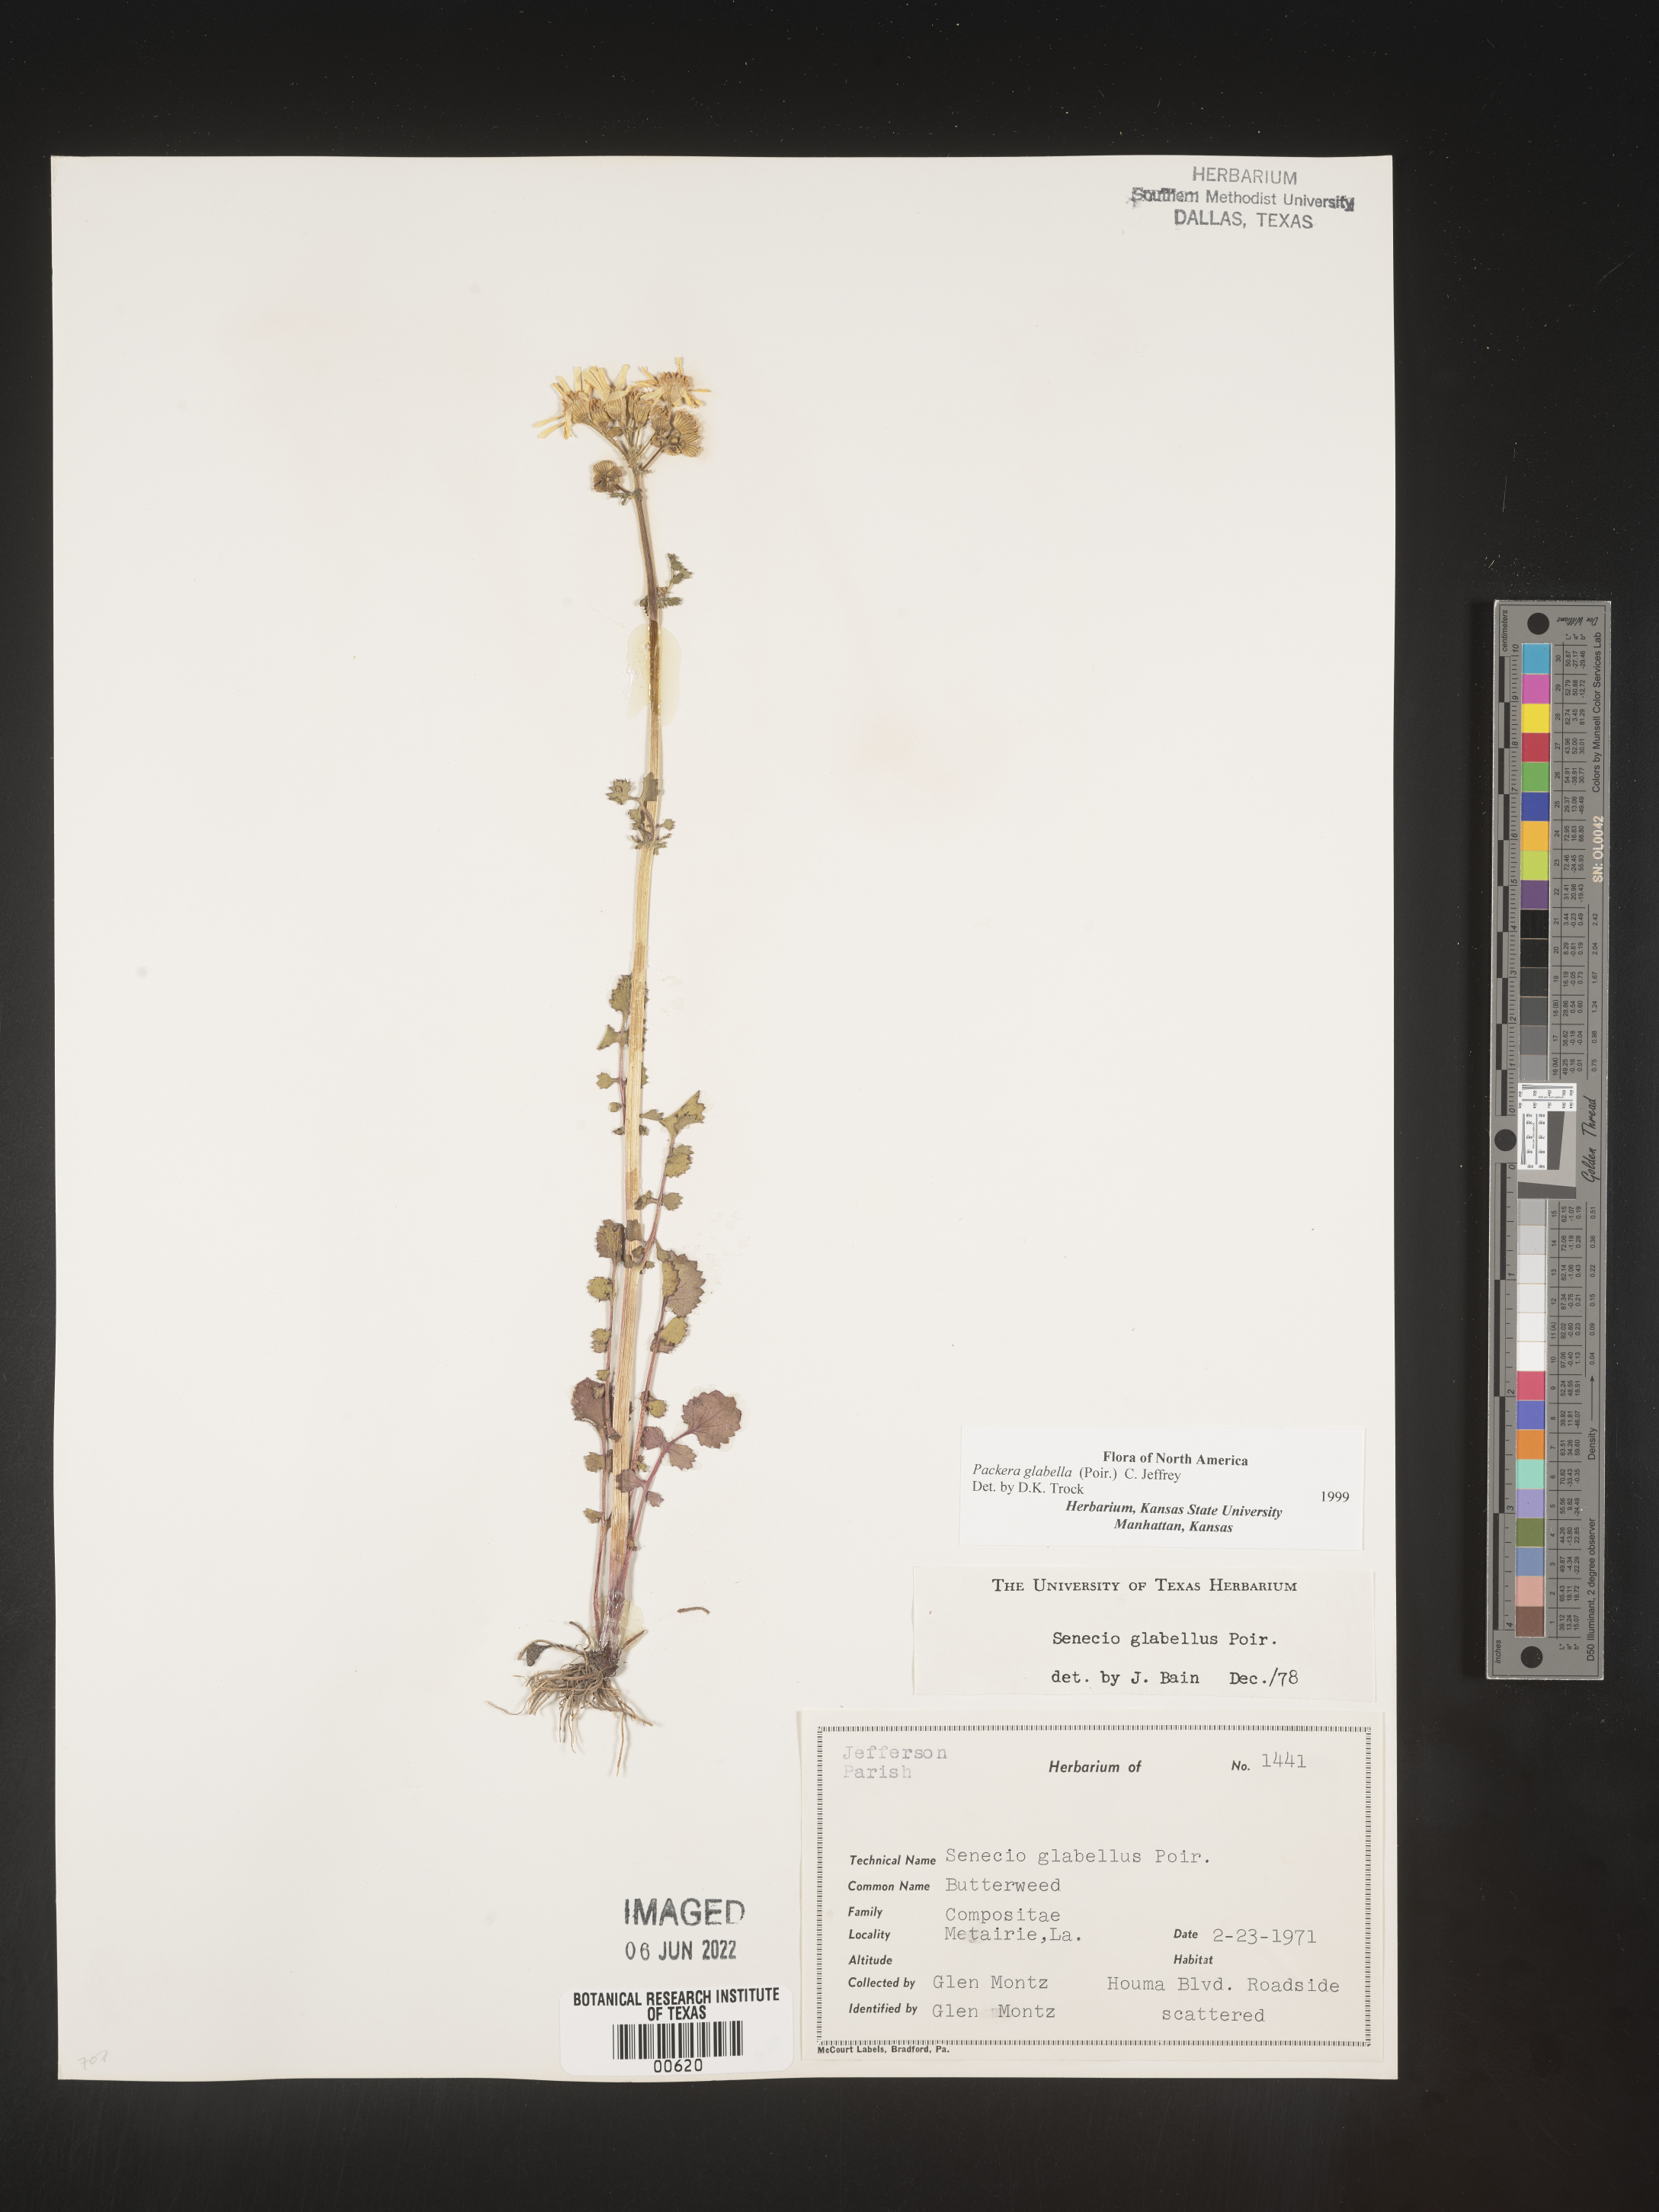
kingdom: Plantae
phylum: Tracheophyta
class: Magnoliopsida
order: Asterales
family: Asteraceae
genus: Packera
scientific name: Packera glabella
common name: Butterweed
